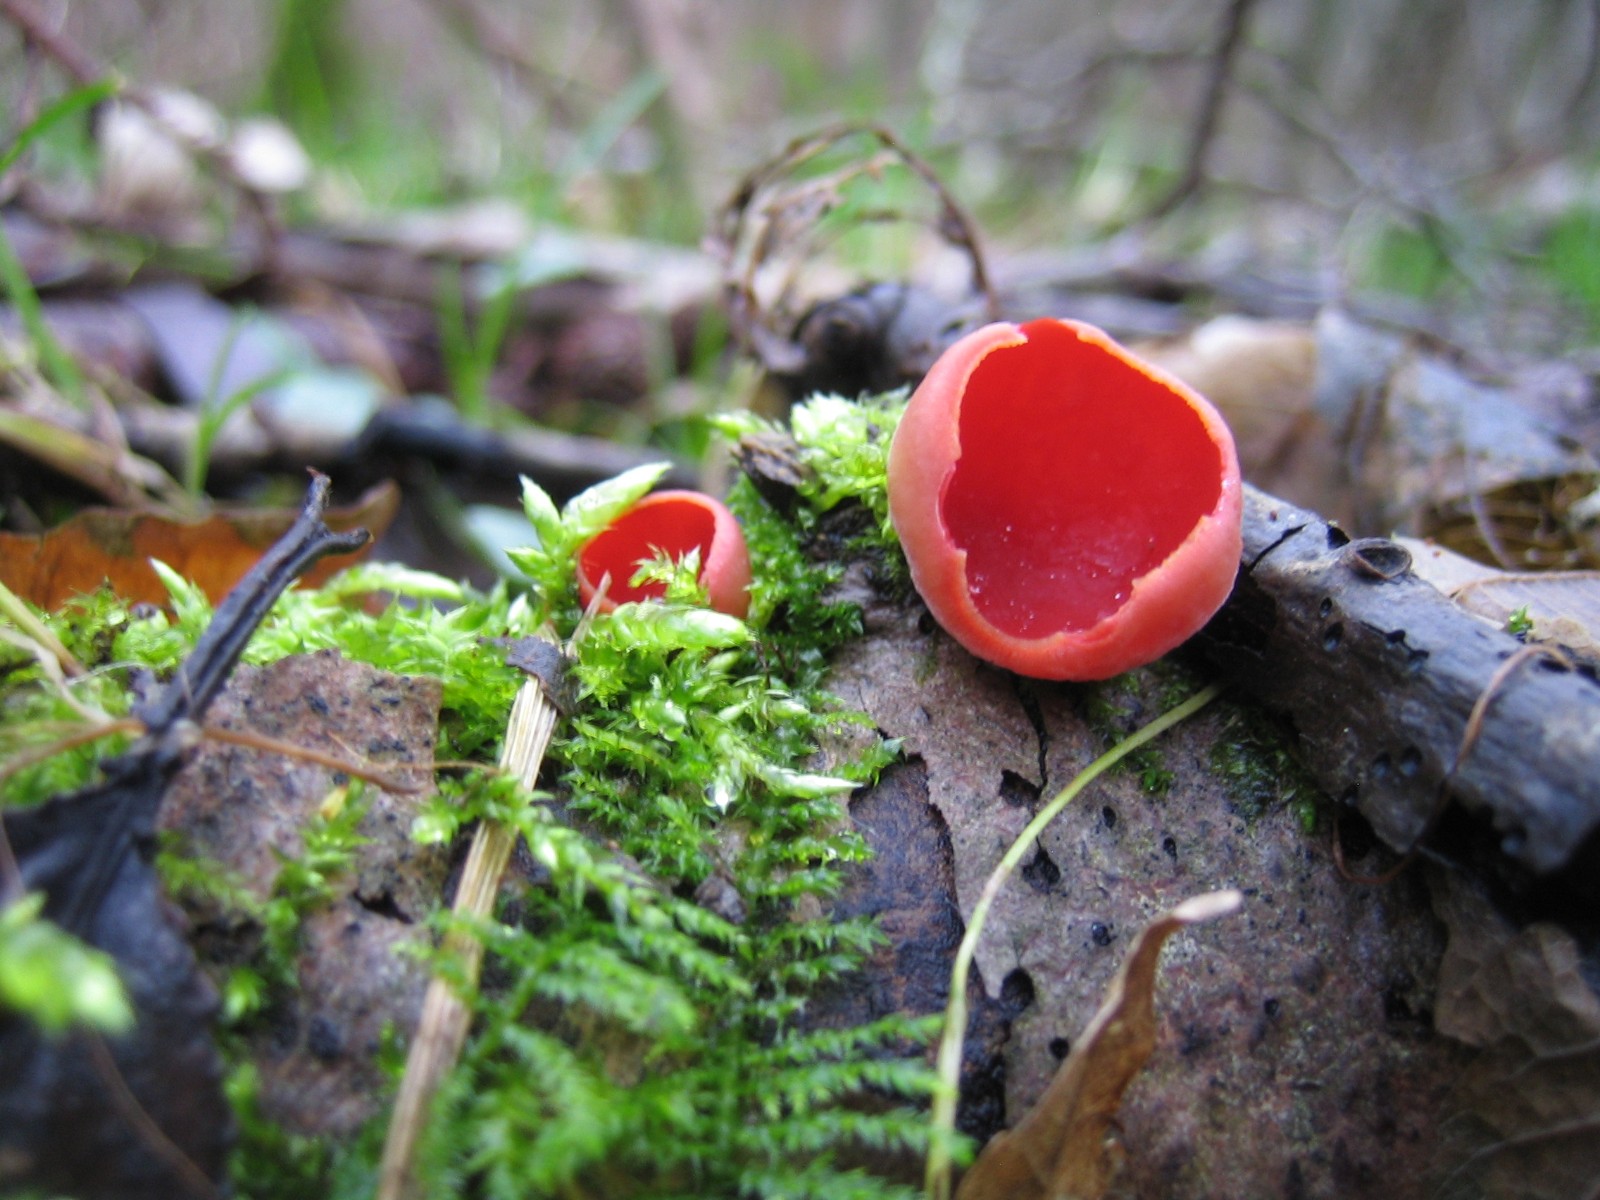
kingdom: Fungi
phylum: Ascomycota
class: Pezizomycetes
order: Pezizales
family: Sarcoscyphaceae
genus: Sarcoscypha
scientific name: Sarcoscypha austriaca
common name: krølhåret pragtbæger
